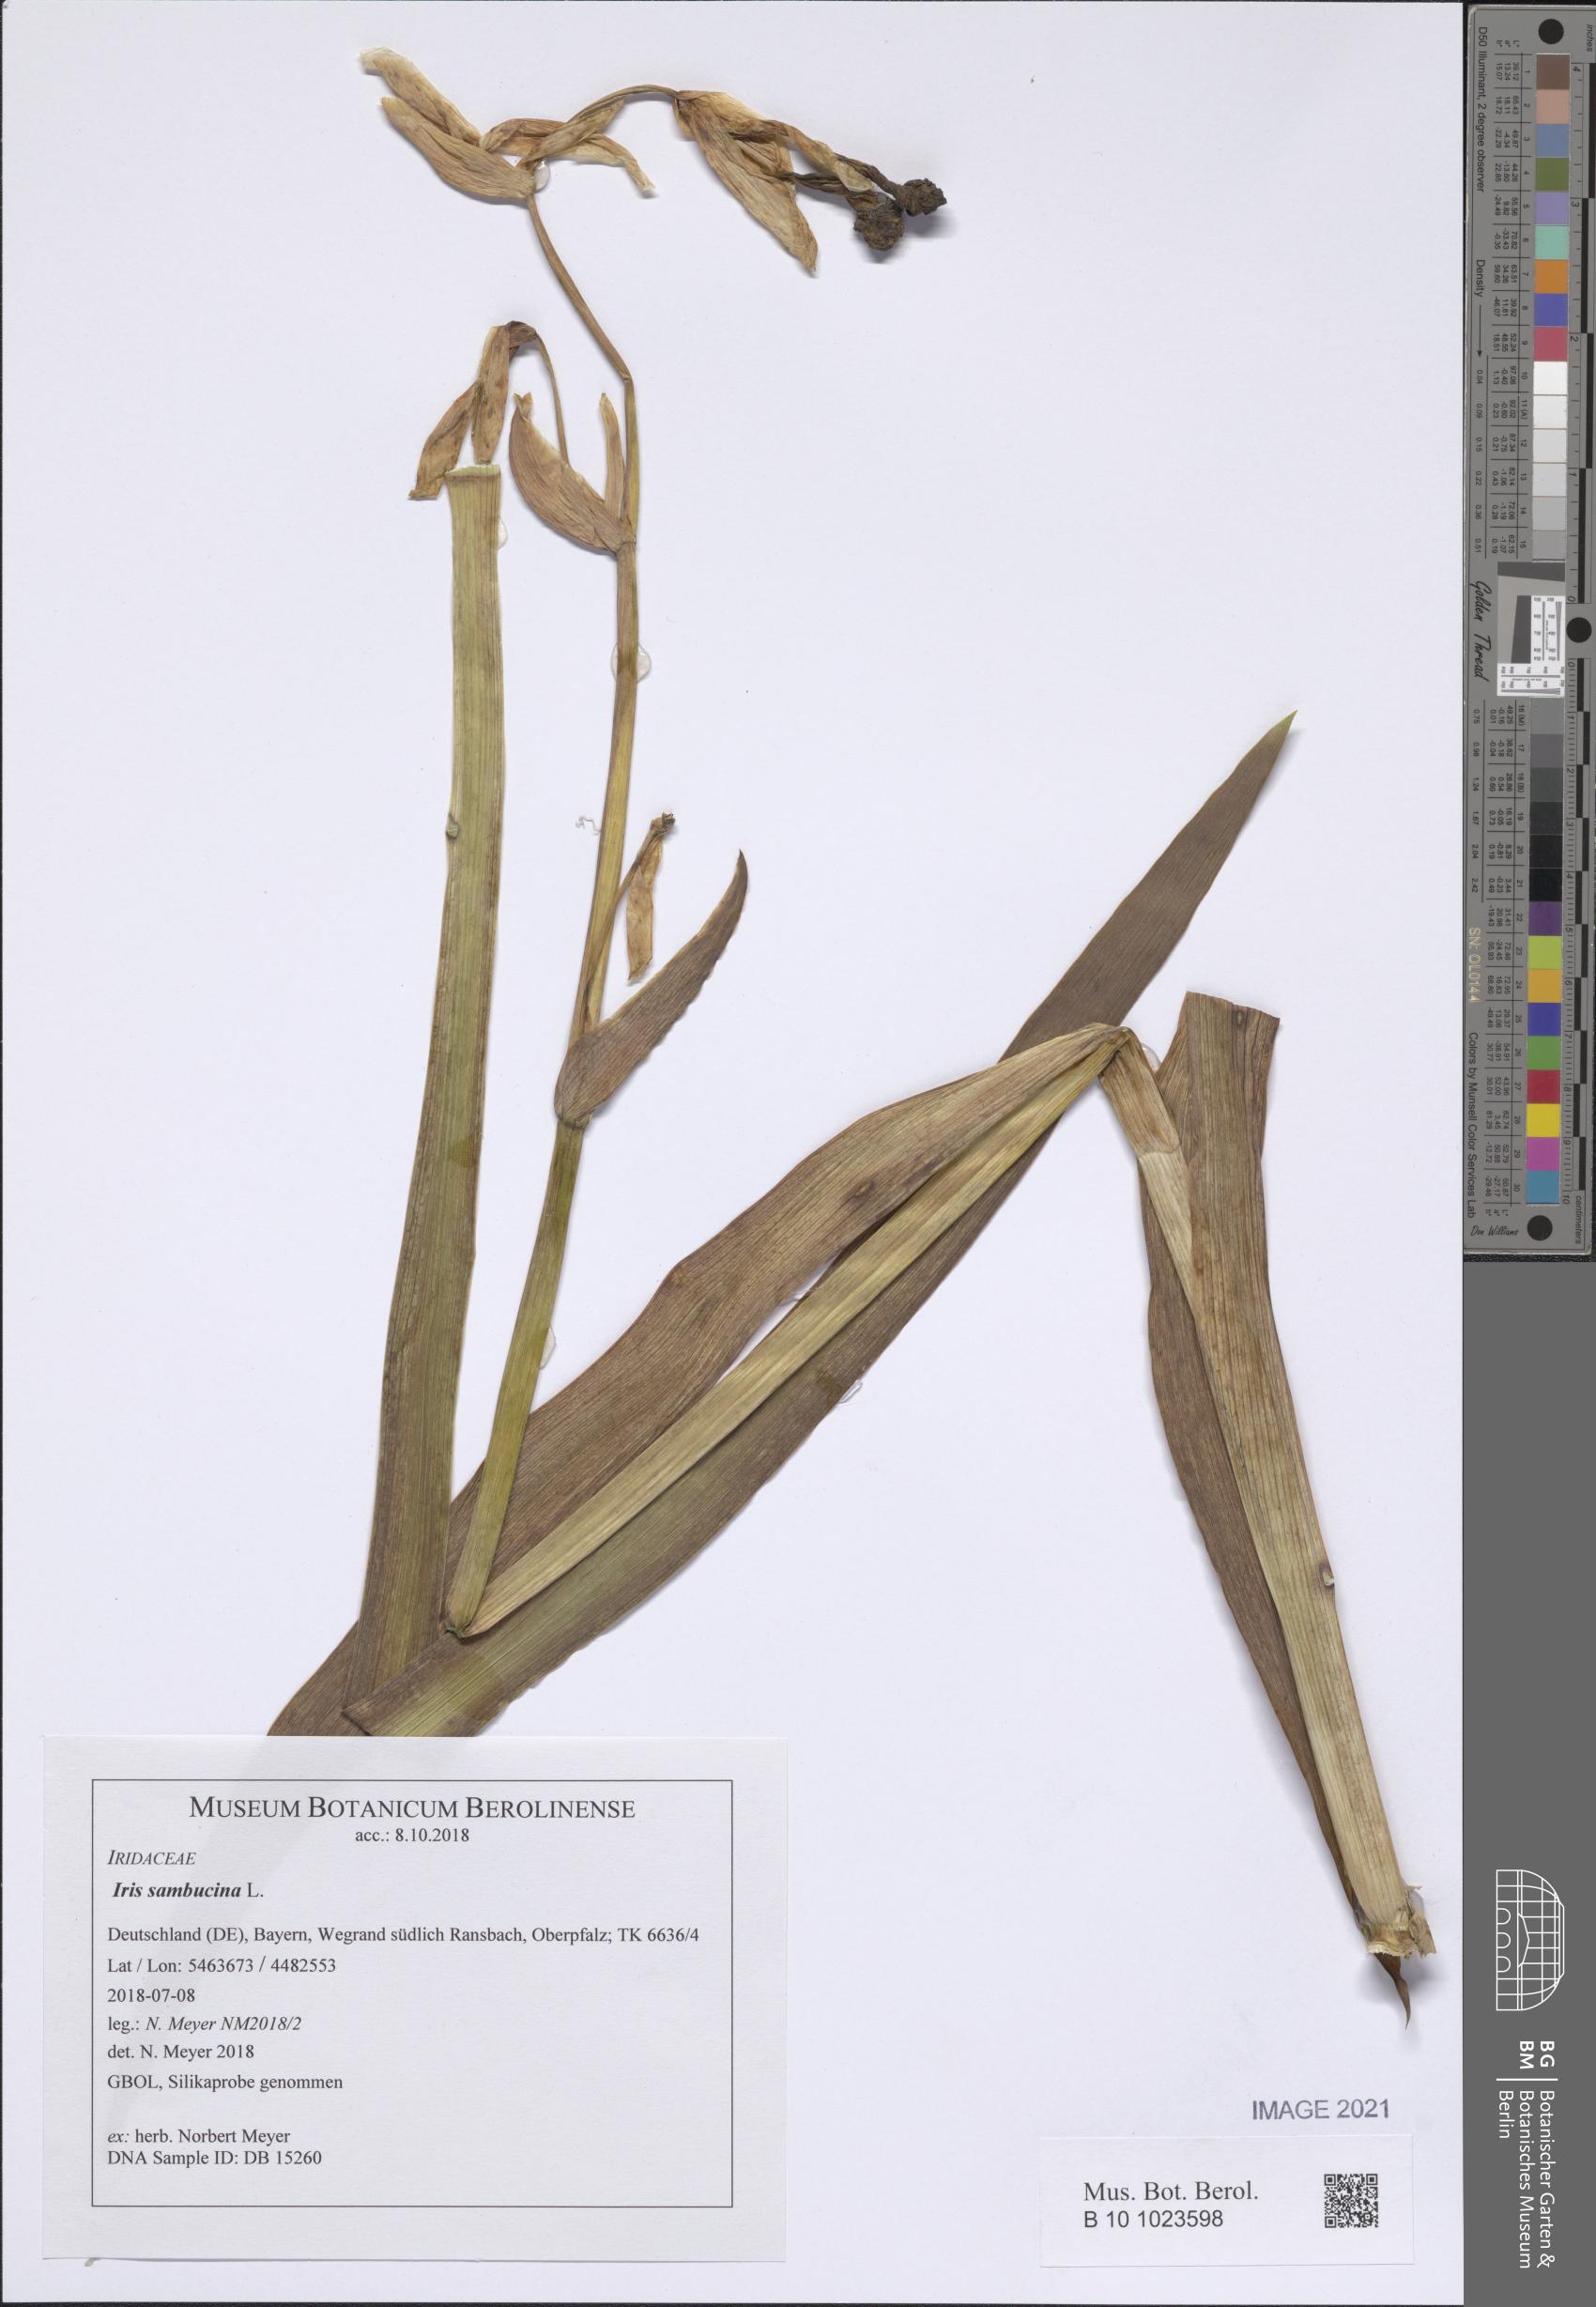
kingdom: Plantae
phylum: Tracheophyta
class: Liliopsida
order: Asparagales
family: Iridaceae
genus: Iris
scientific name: Iris germanica
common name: German iris
